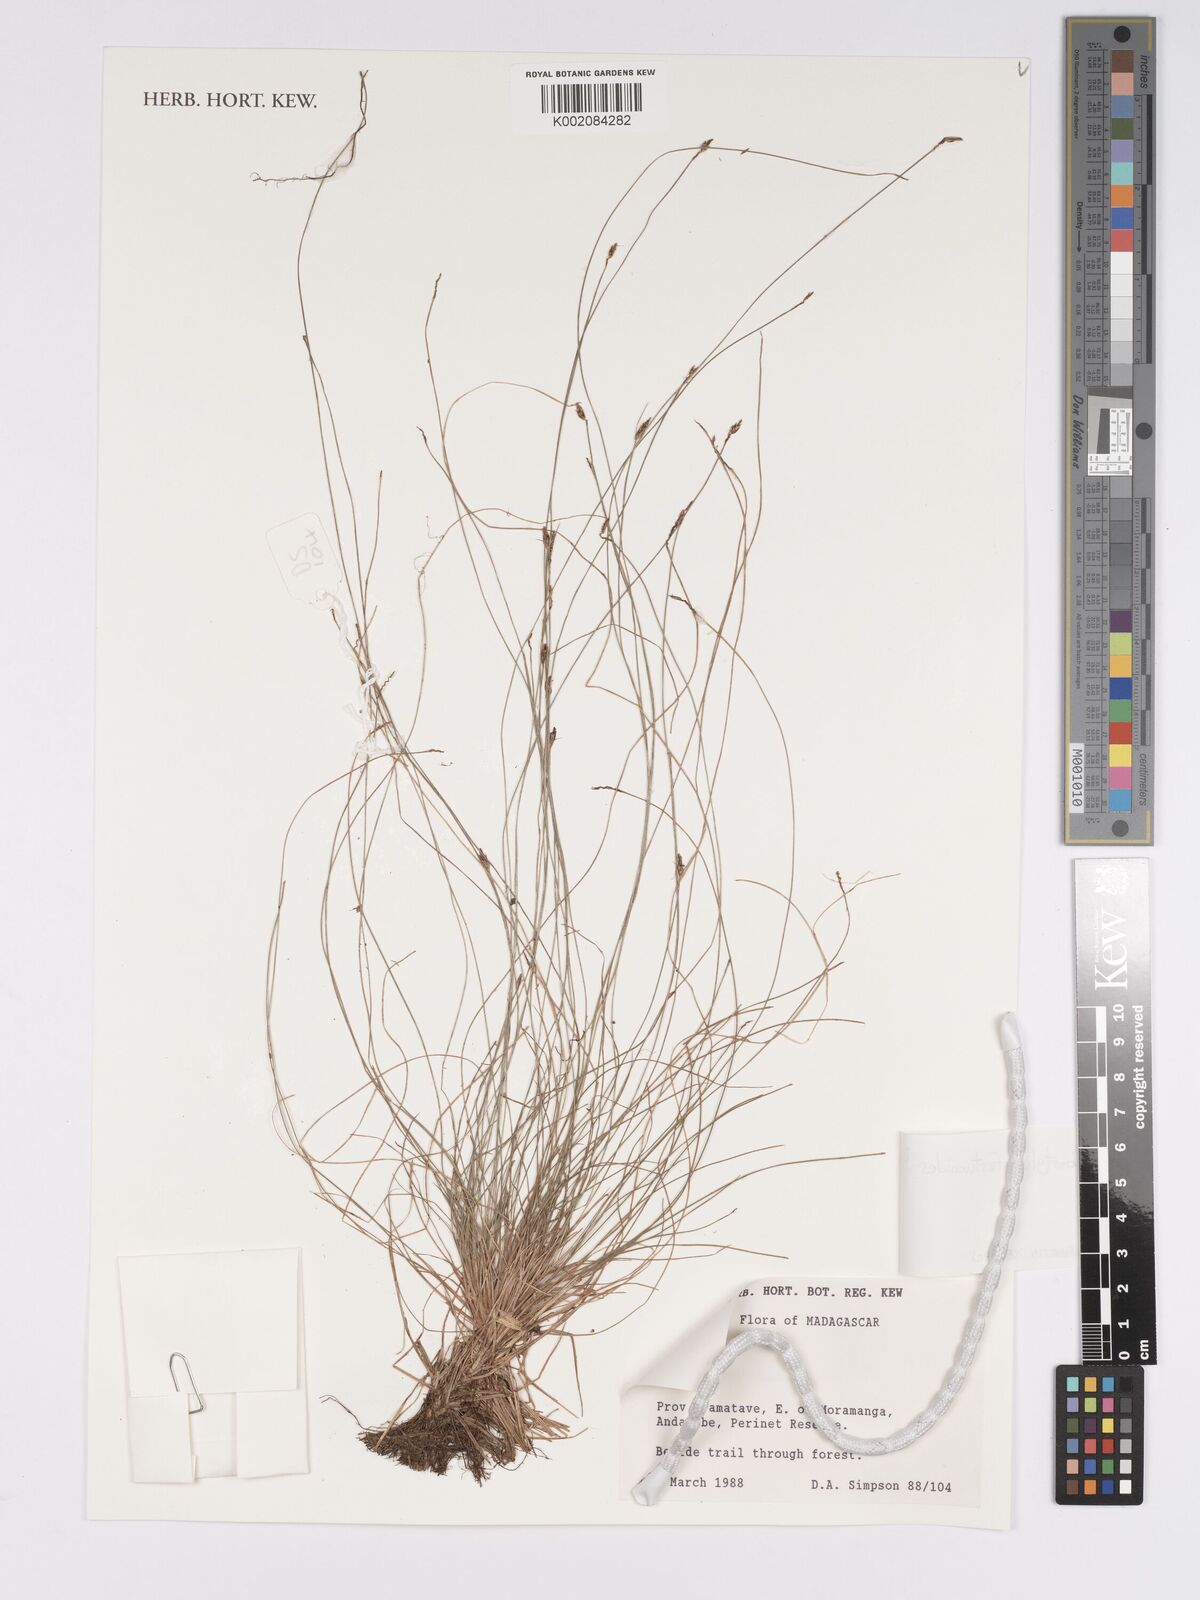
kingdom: Plantae
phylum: Tracheophyta
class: Liliopsida
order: Poales
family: Cyperaceae
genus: Bulbostylis
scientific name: Bulbostylis festucoides
